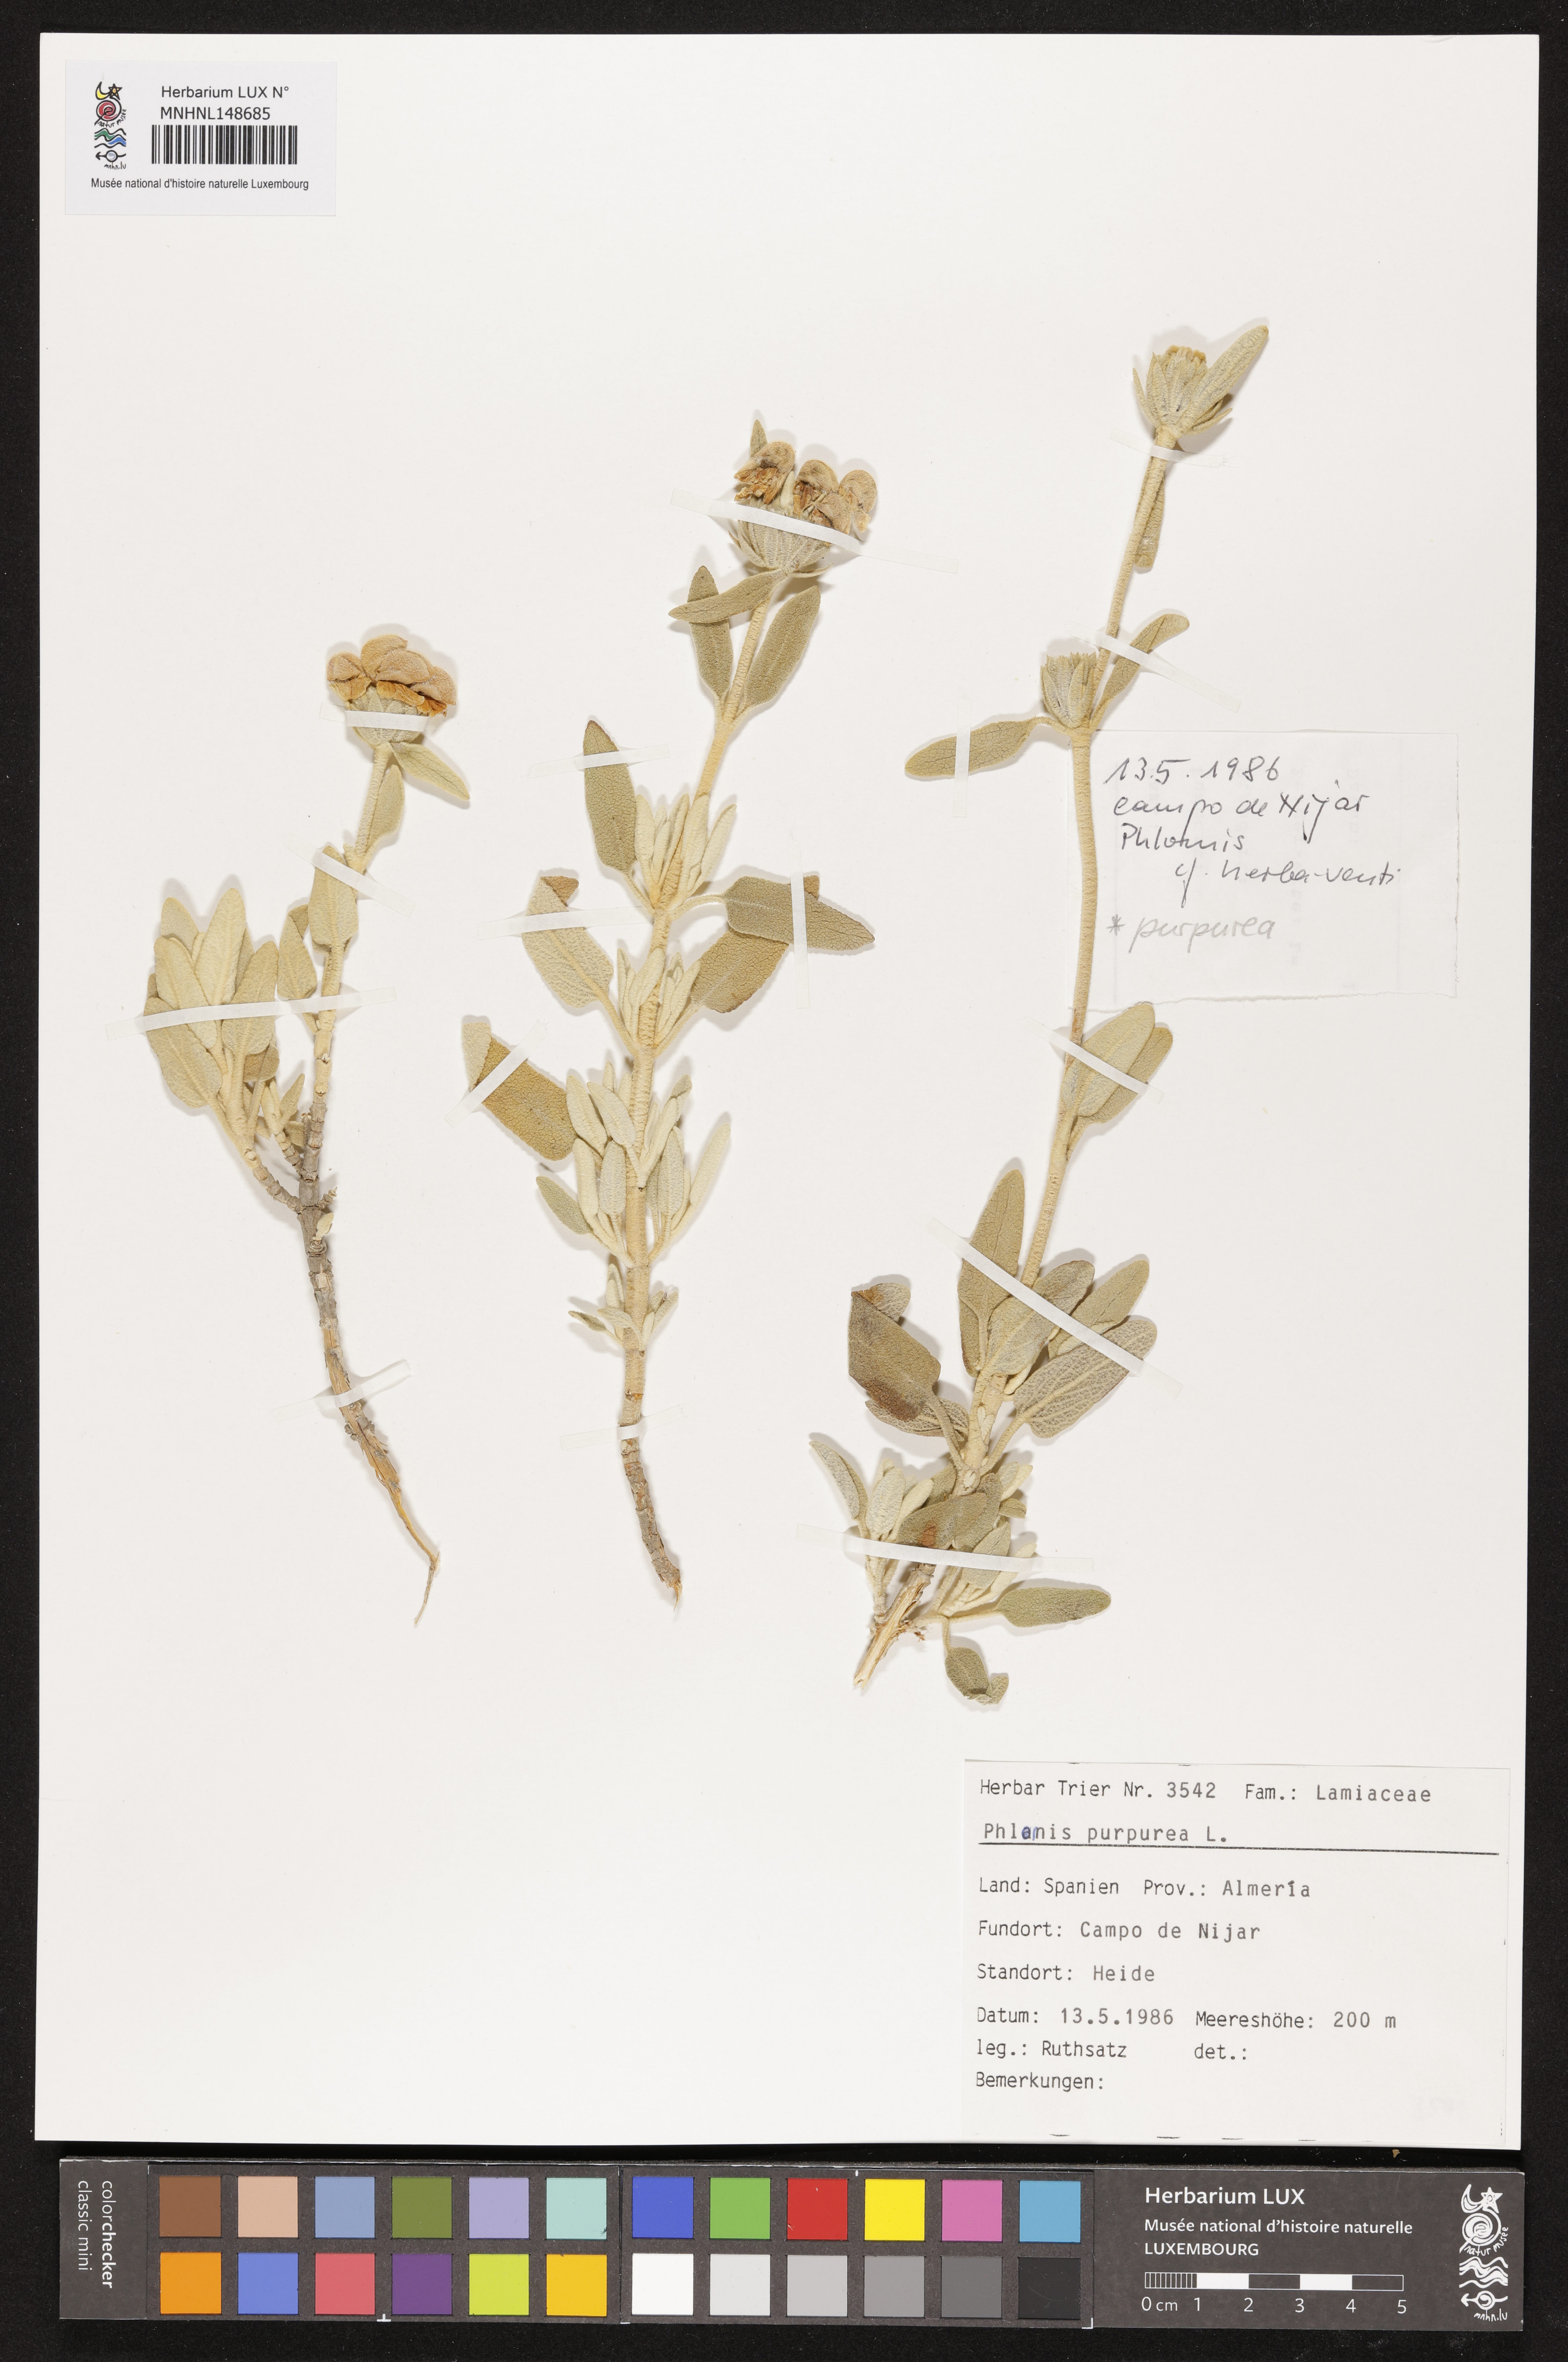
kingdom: Plantae
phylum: Tracheophyta
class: Magnoliopsida
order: Lamiales
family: Lamiaceae
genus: Phlomis
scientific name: Phlomis purpurea
